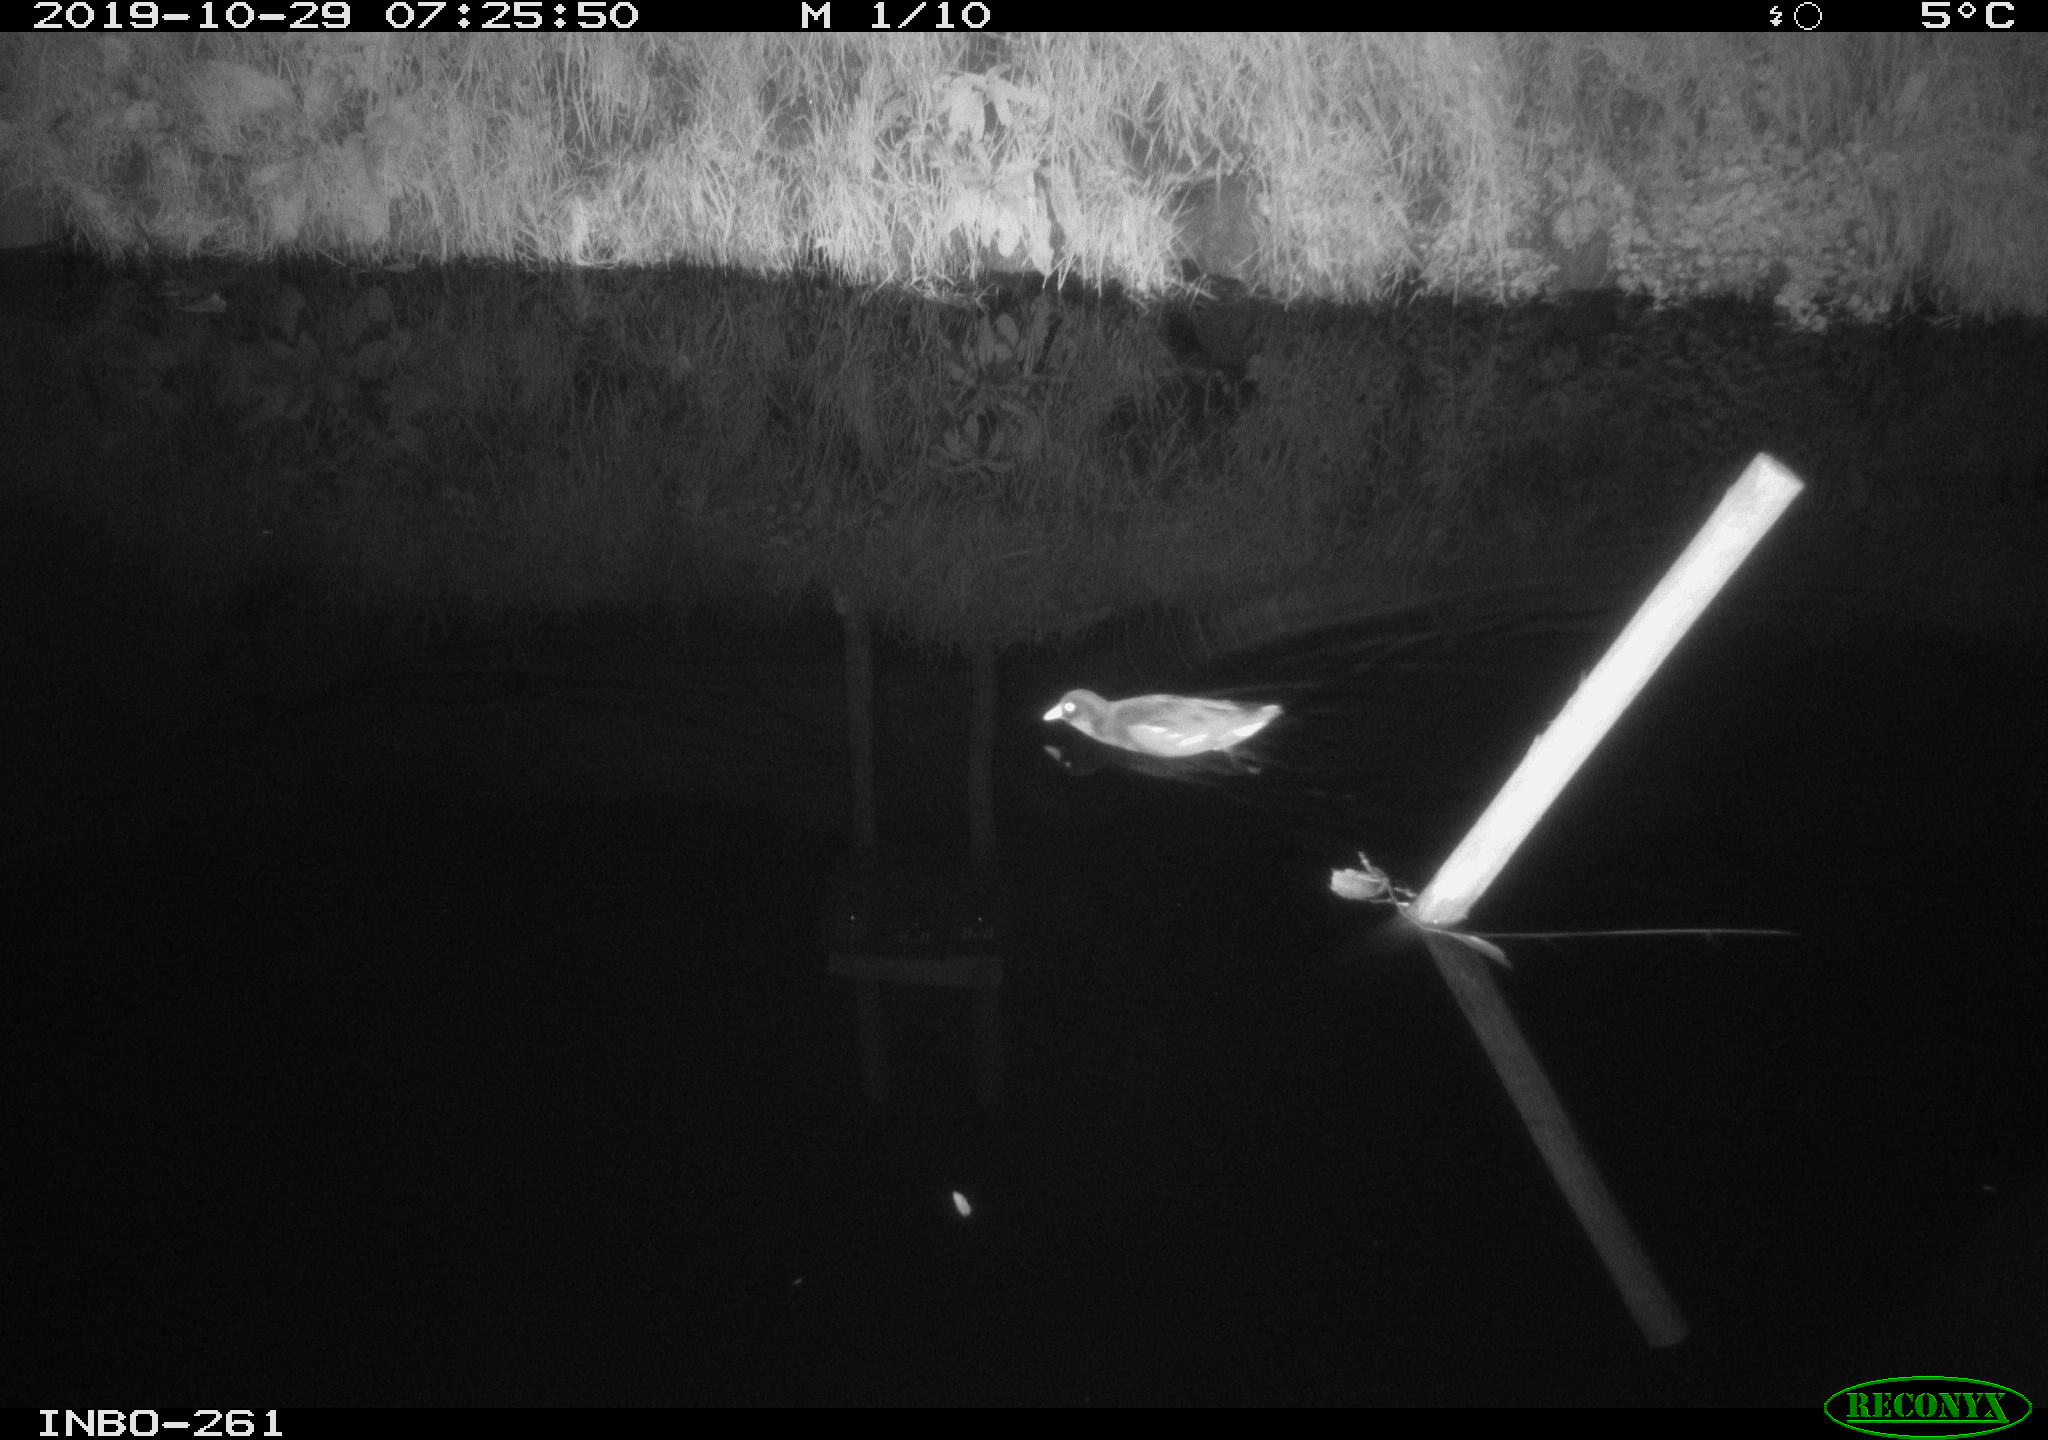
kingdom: Animalia
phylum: Chordata
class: Aves
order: Gruiformes
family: Rallidae
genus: Gallinula
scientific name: Gallinula chloropus
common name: Common moorhen
